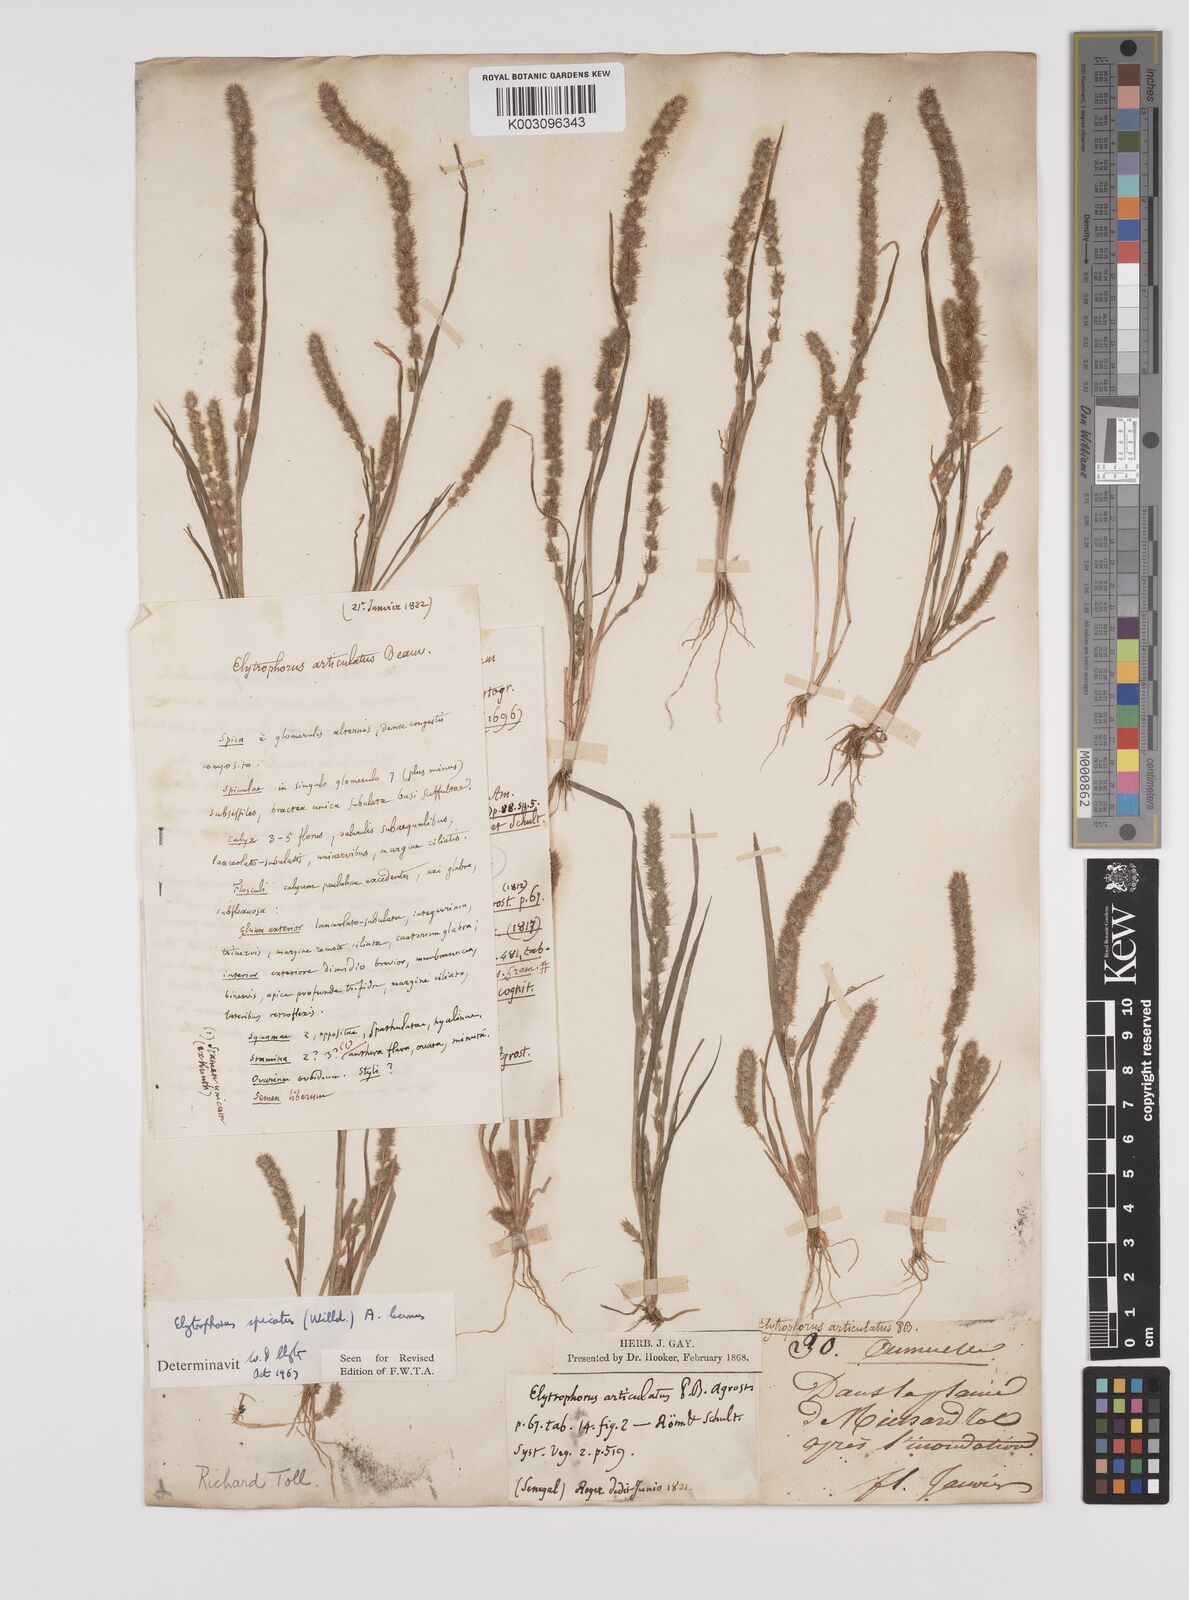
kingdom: Plantae
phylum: Tracheophyta
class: Liliopsida
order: Poales
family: Poaceae
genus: Elytrophorus
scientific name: Elytrophorus spicatus
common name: Spike grass
